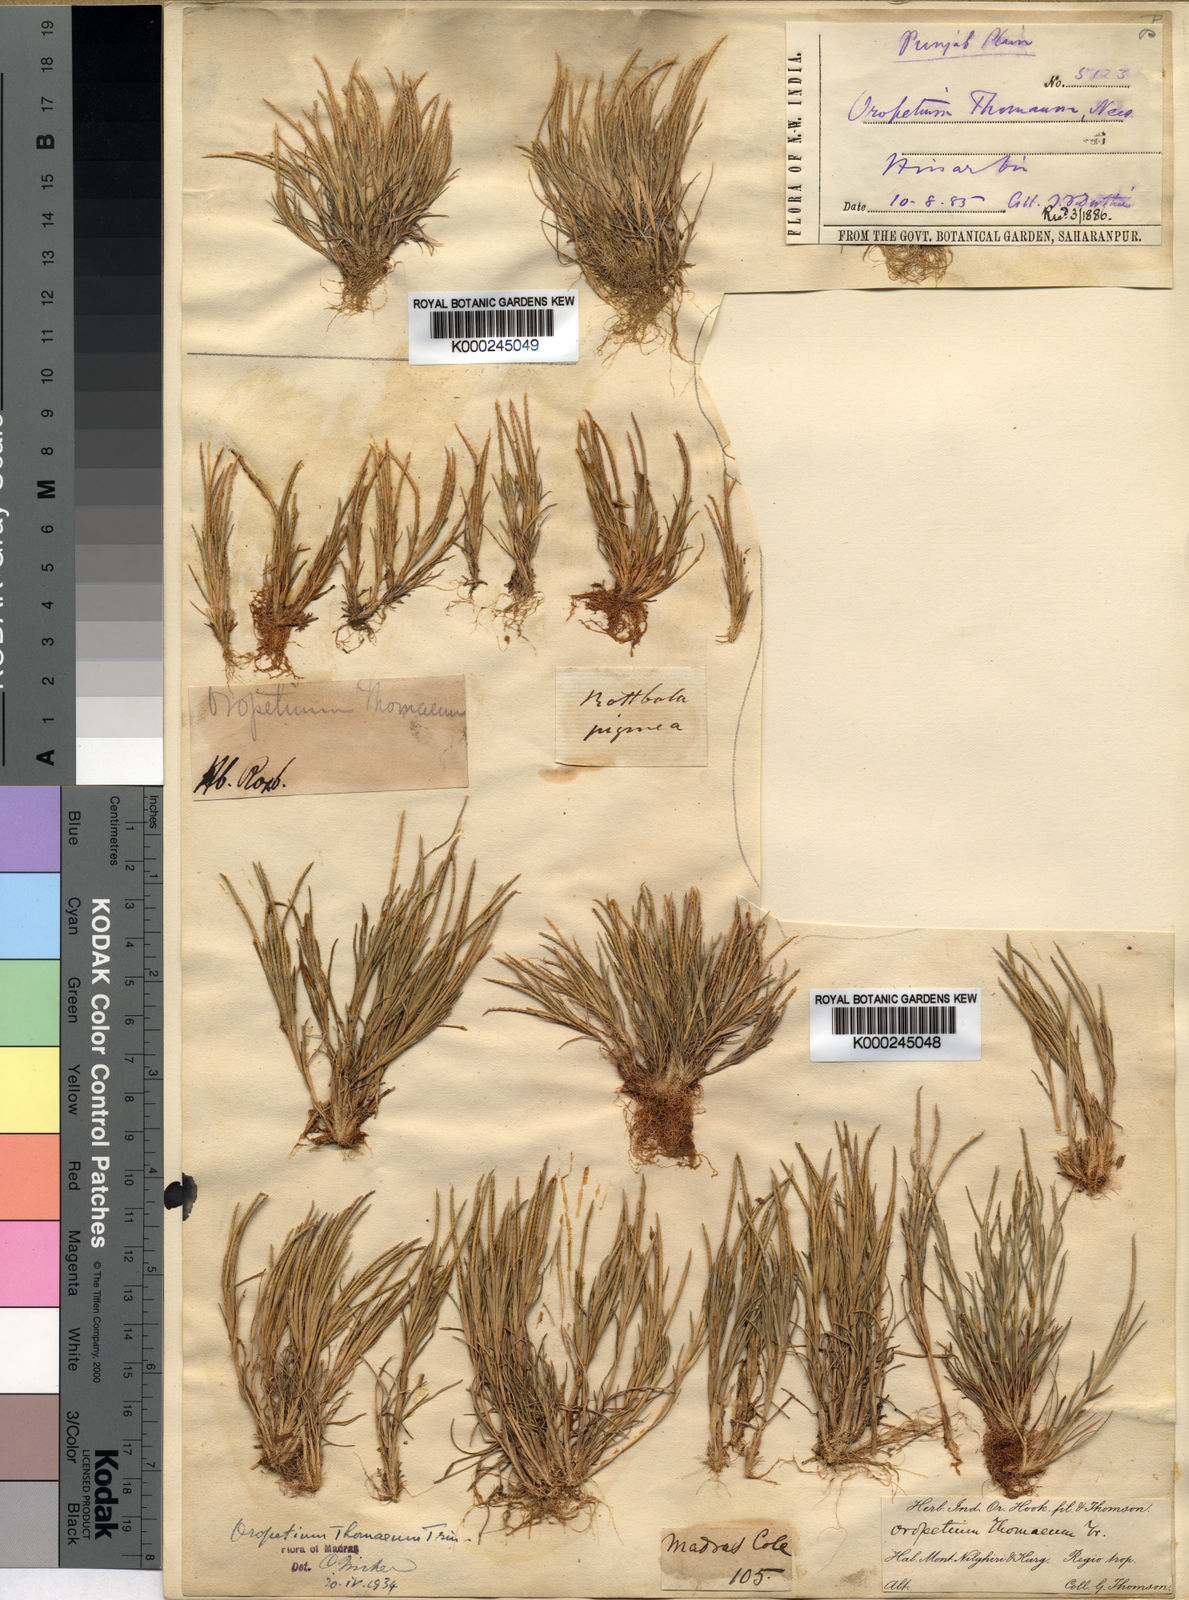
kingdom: Plantae
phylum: Tracheophyta
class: Liliopsida
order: Poales
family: Poaceae
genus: Oropetium
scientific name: Oropetium thomaeum
